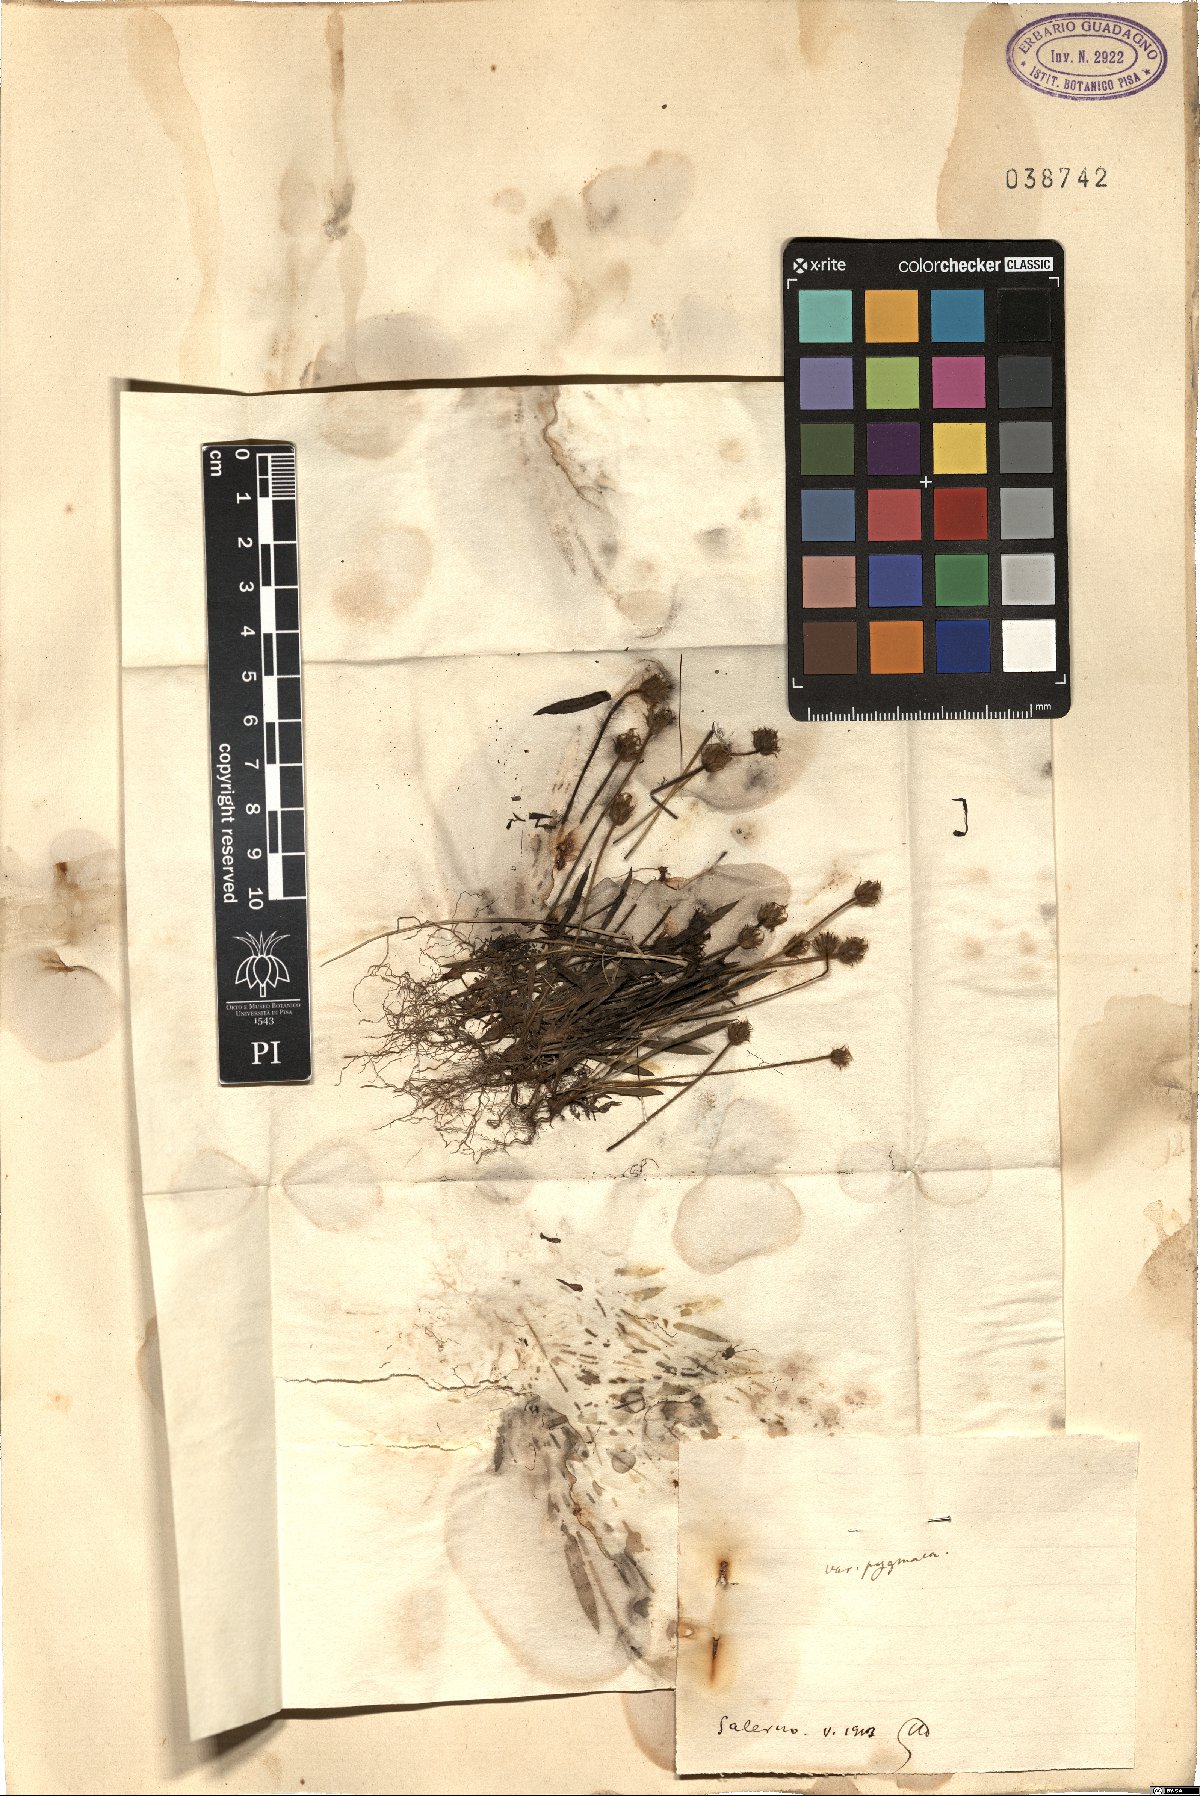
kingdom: Plantae
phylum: Tracheophyta
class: Magnoliopsida
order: Lamiales
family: Plantaginaceae
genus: Plantago
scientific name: Plantago bellardii
